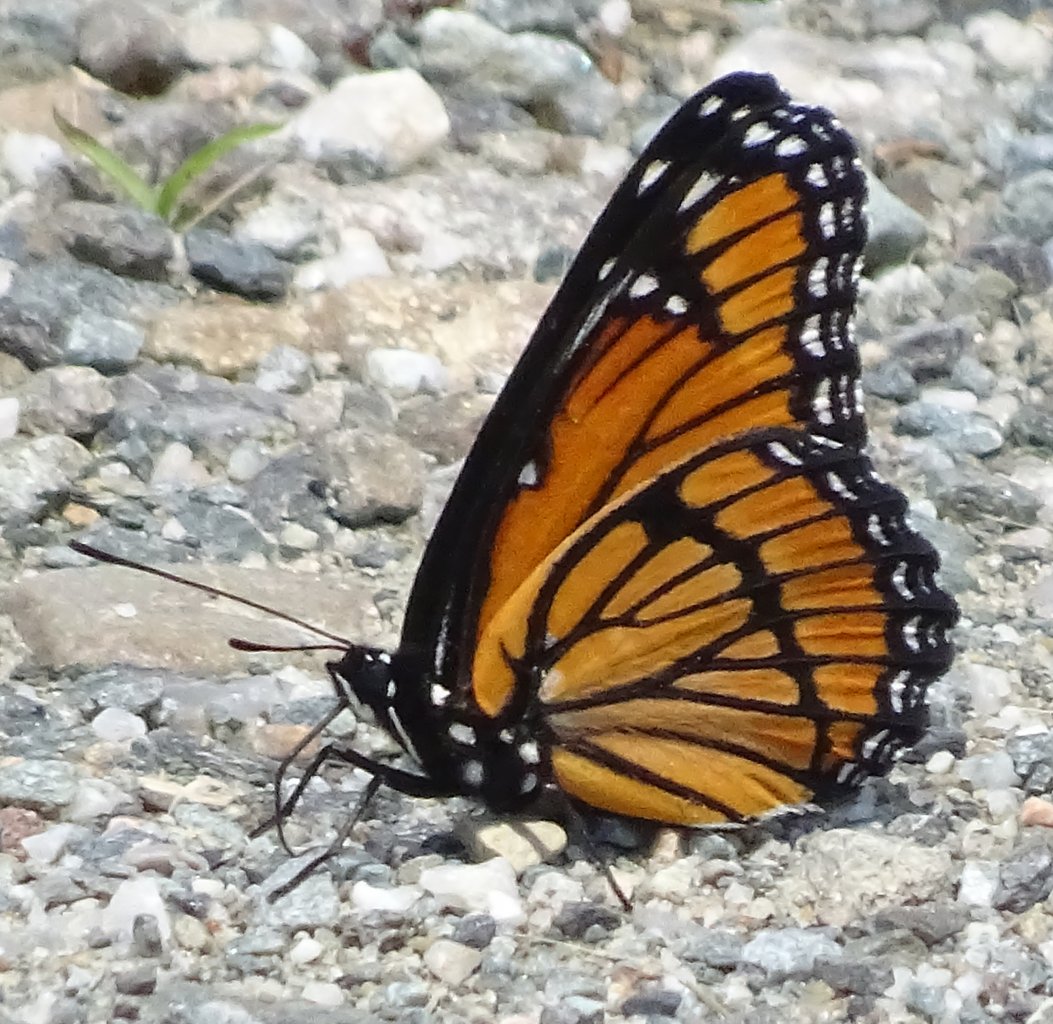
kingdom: Animalia
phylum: Arthropoda
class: Insecta
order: Lepidoptera
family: Nymphalidae
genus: Limenitis
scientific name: Limenitis archippus
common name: Viceroy
